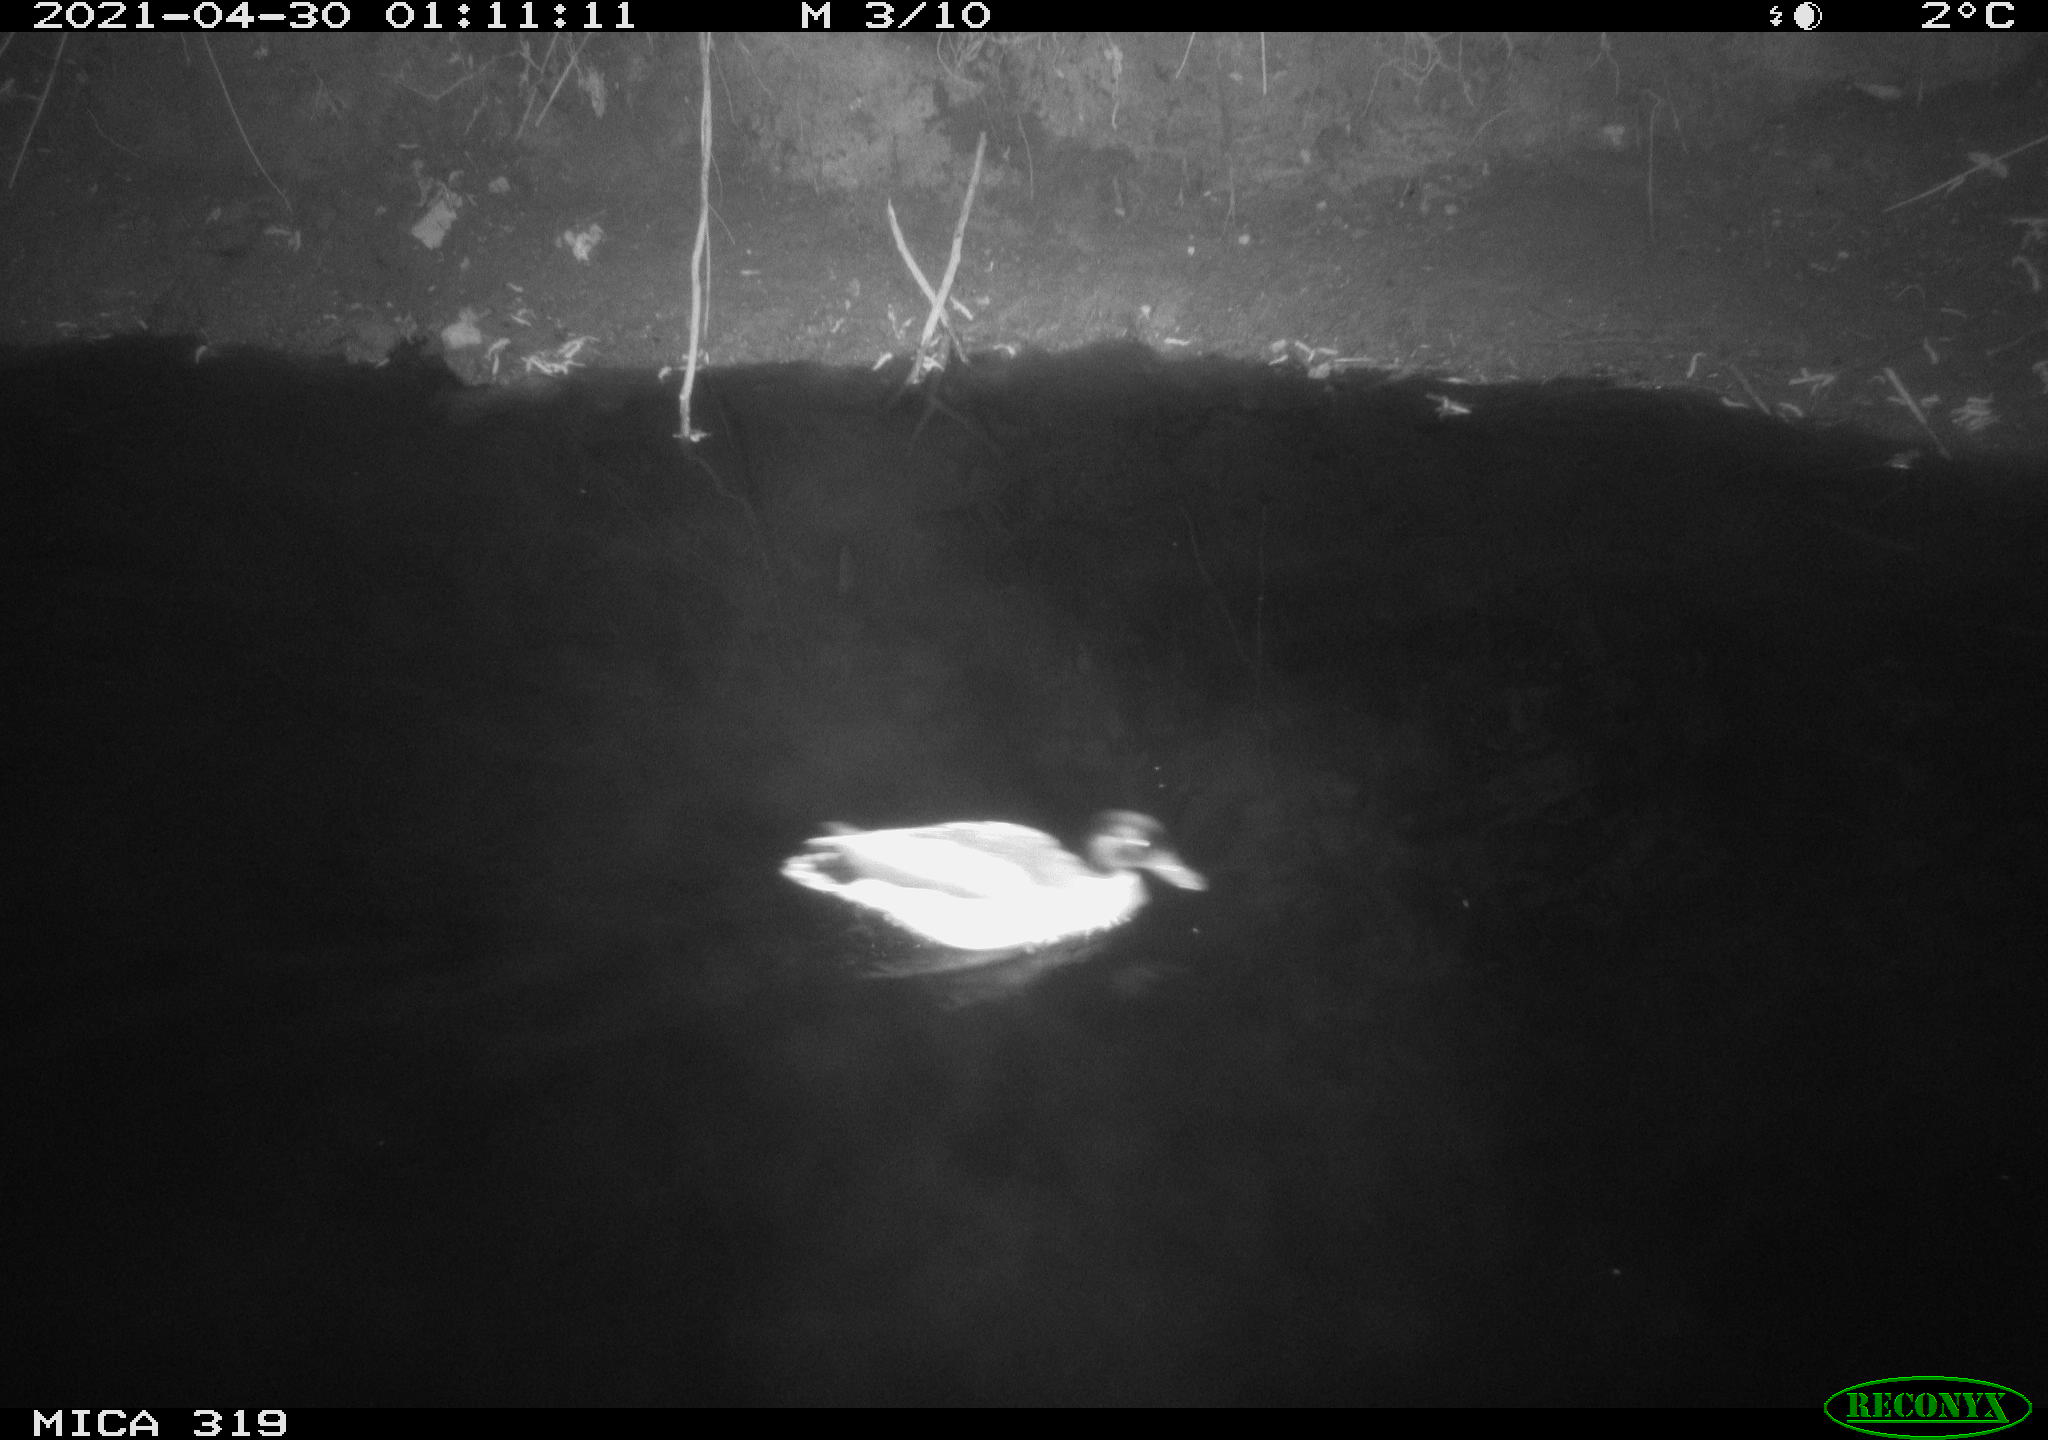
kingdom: Animalia
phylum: Chordata
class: Aves
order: Anseriformes
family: Anatidae
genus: Anas
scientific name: Anas platyrhynchos
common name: Mallard
